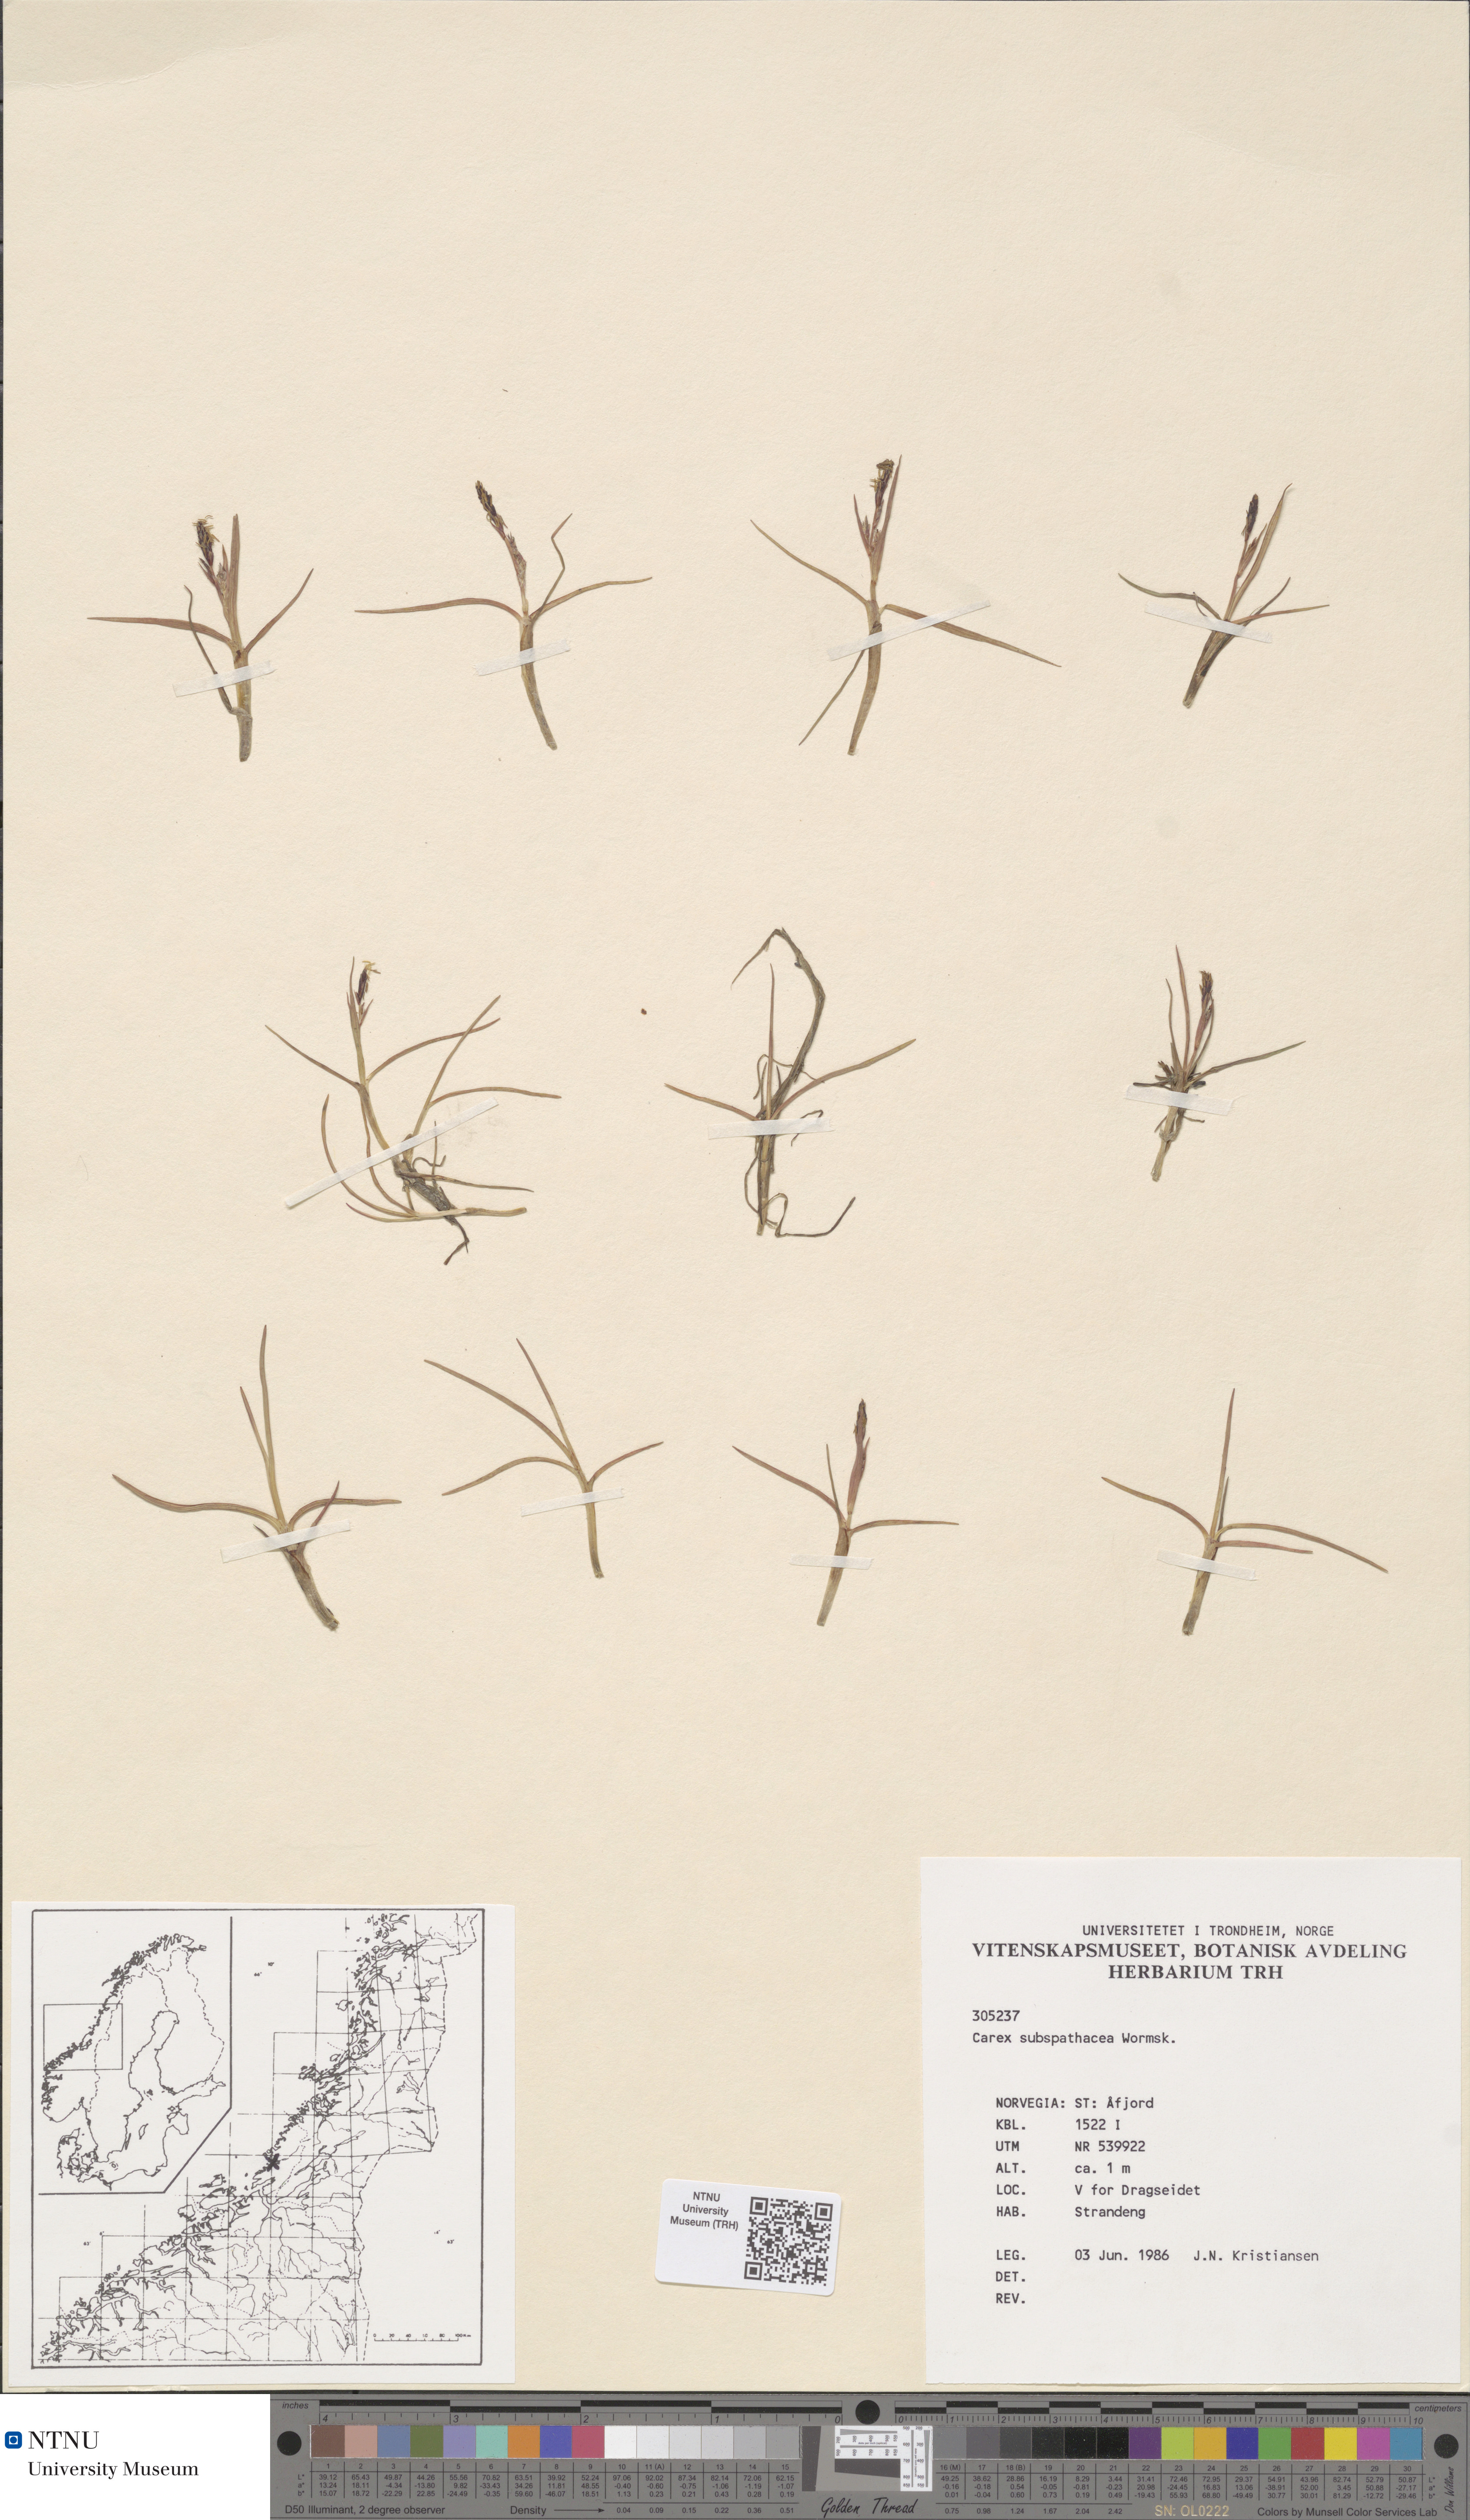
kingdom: Plantae
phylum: Tracheophyta
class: Liliopsida
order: Poales
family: Cyperaceae
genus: Carex
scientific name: Carex subspathacea
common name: Hoppner's sedge
